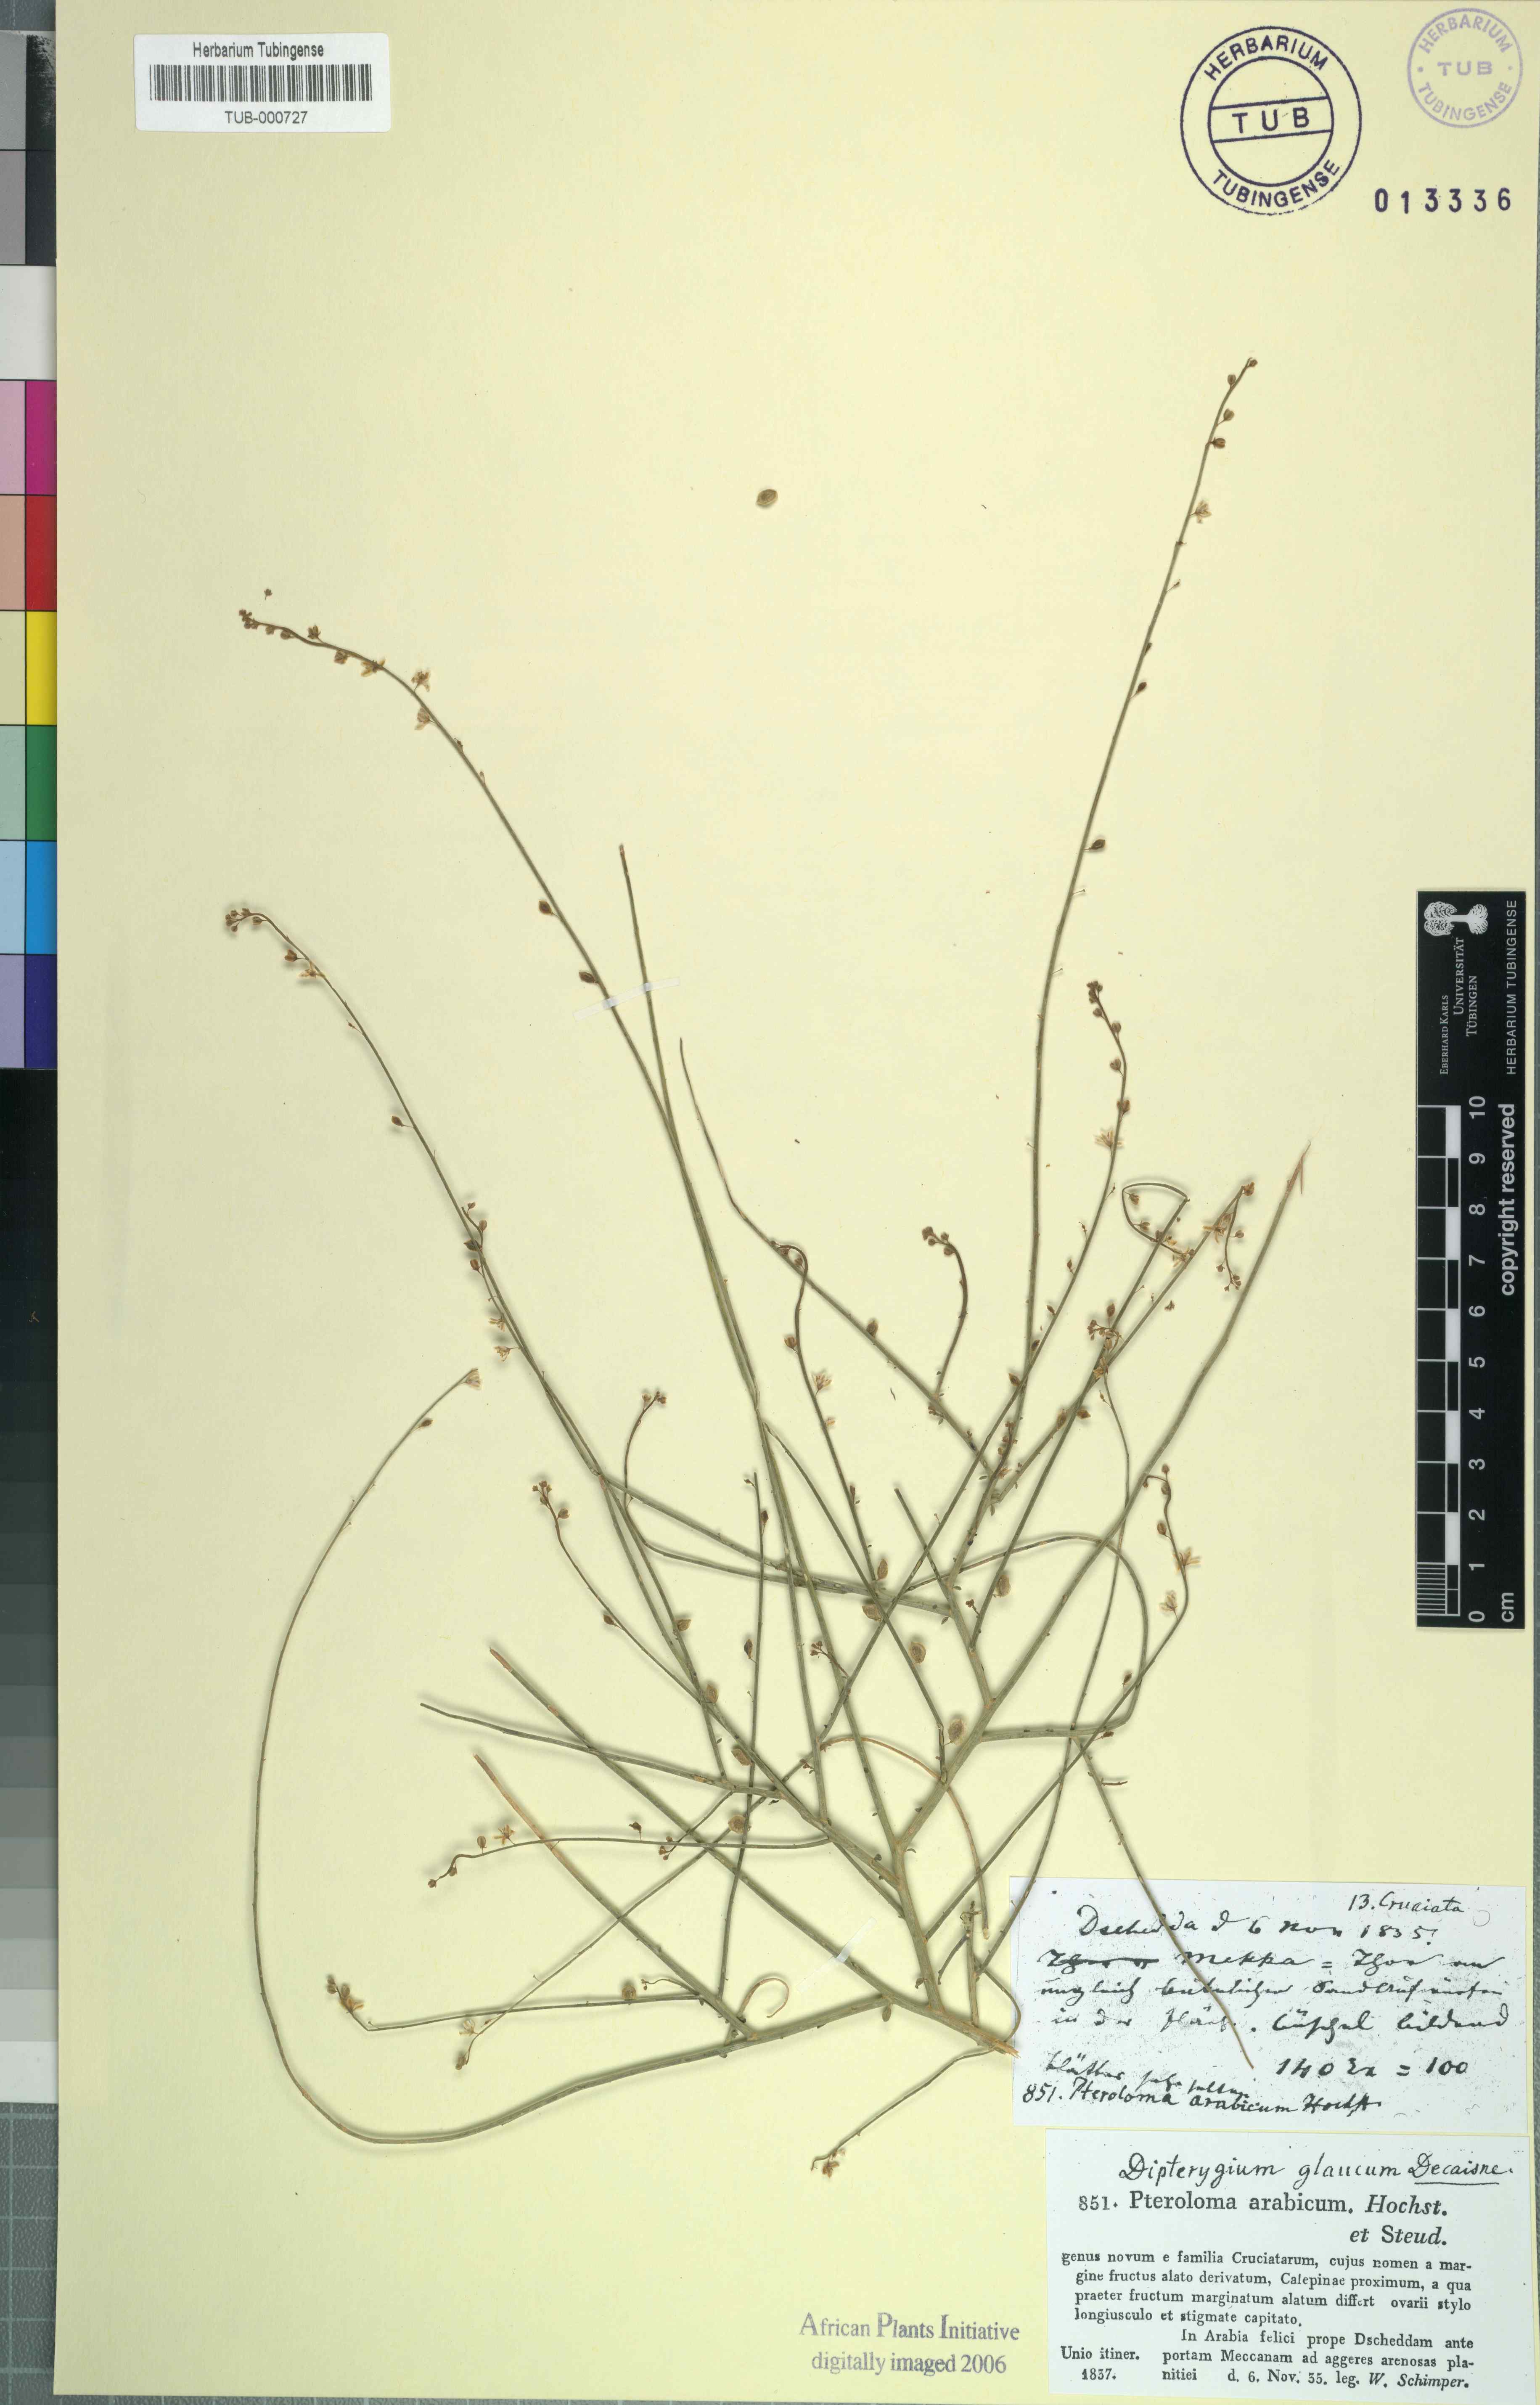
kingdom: Plantae
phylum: Tracheophyta
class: Magnoliopsida
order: Brassicales
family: Cleomaceae
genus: Dipterygium
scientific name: Dipterygium glaucum
